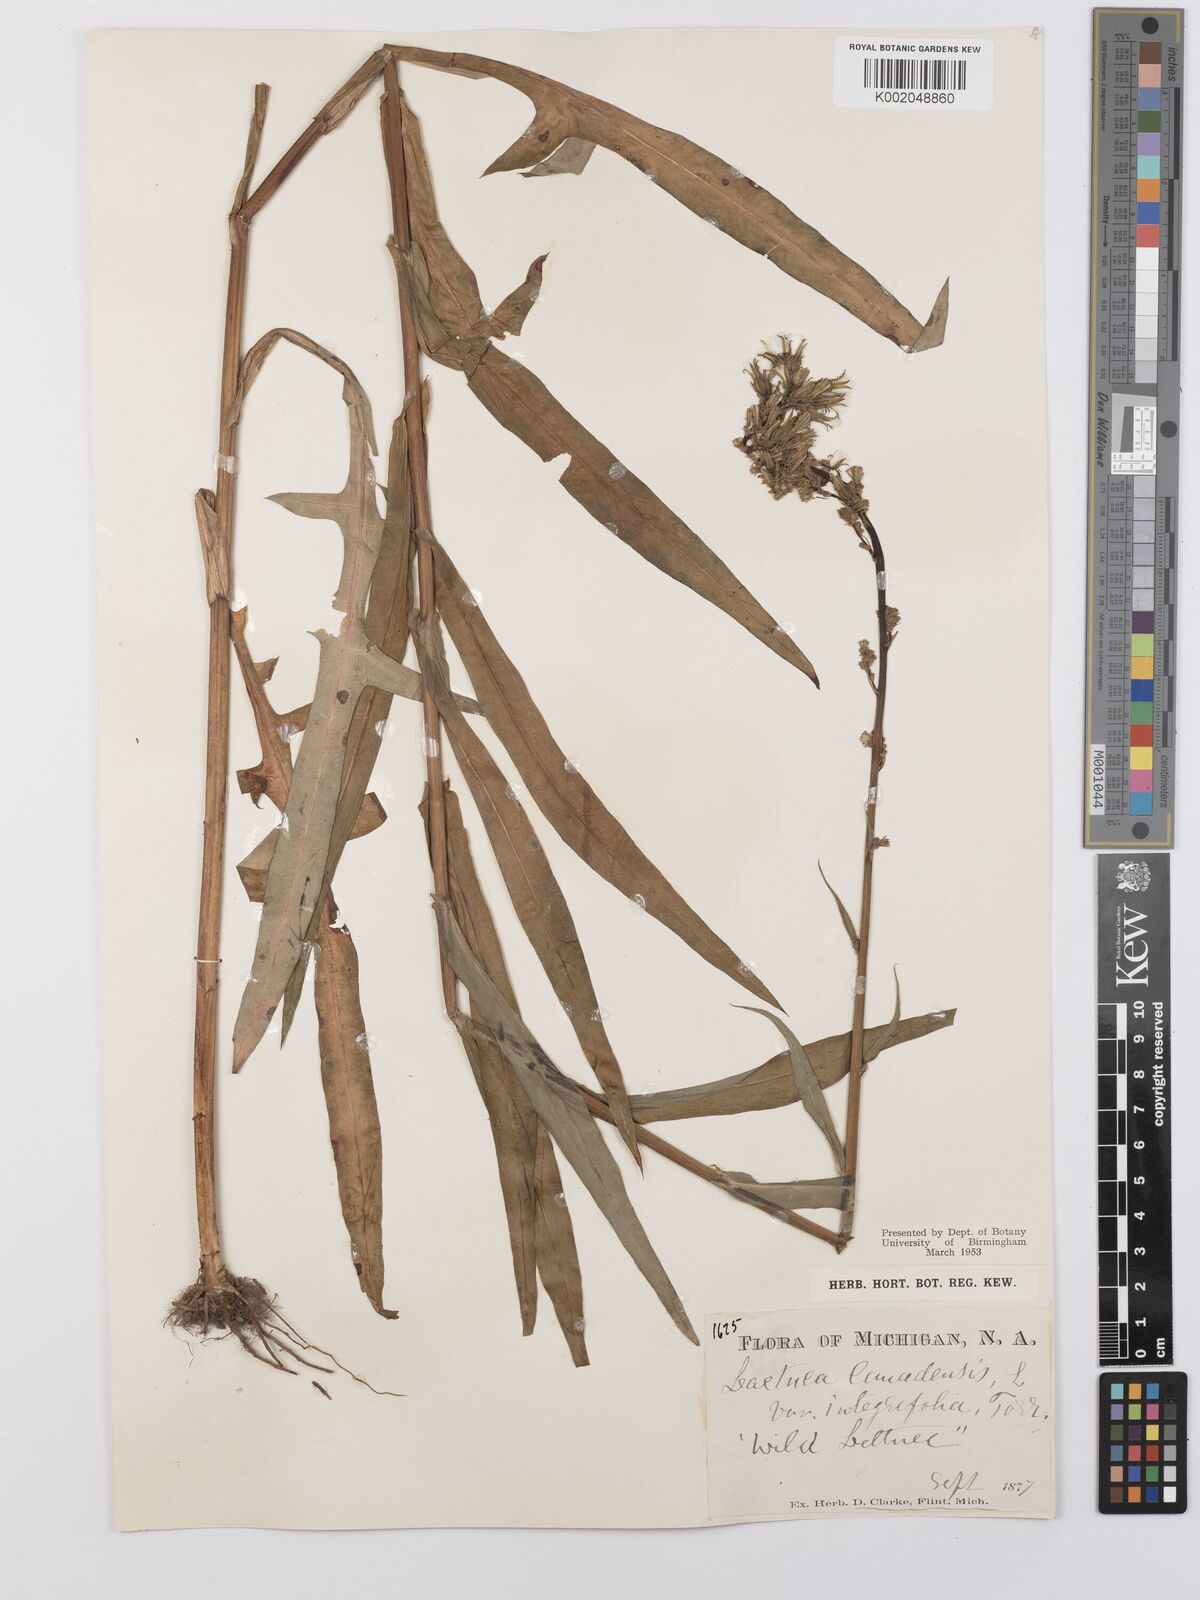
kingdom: Plantae
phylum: Tracheophyta
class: Magnoliopsida
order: Asterales
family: Asteraceae
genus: Lactuca
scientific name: Lactuca canadensis
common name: Canada lettuce
